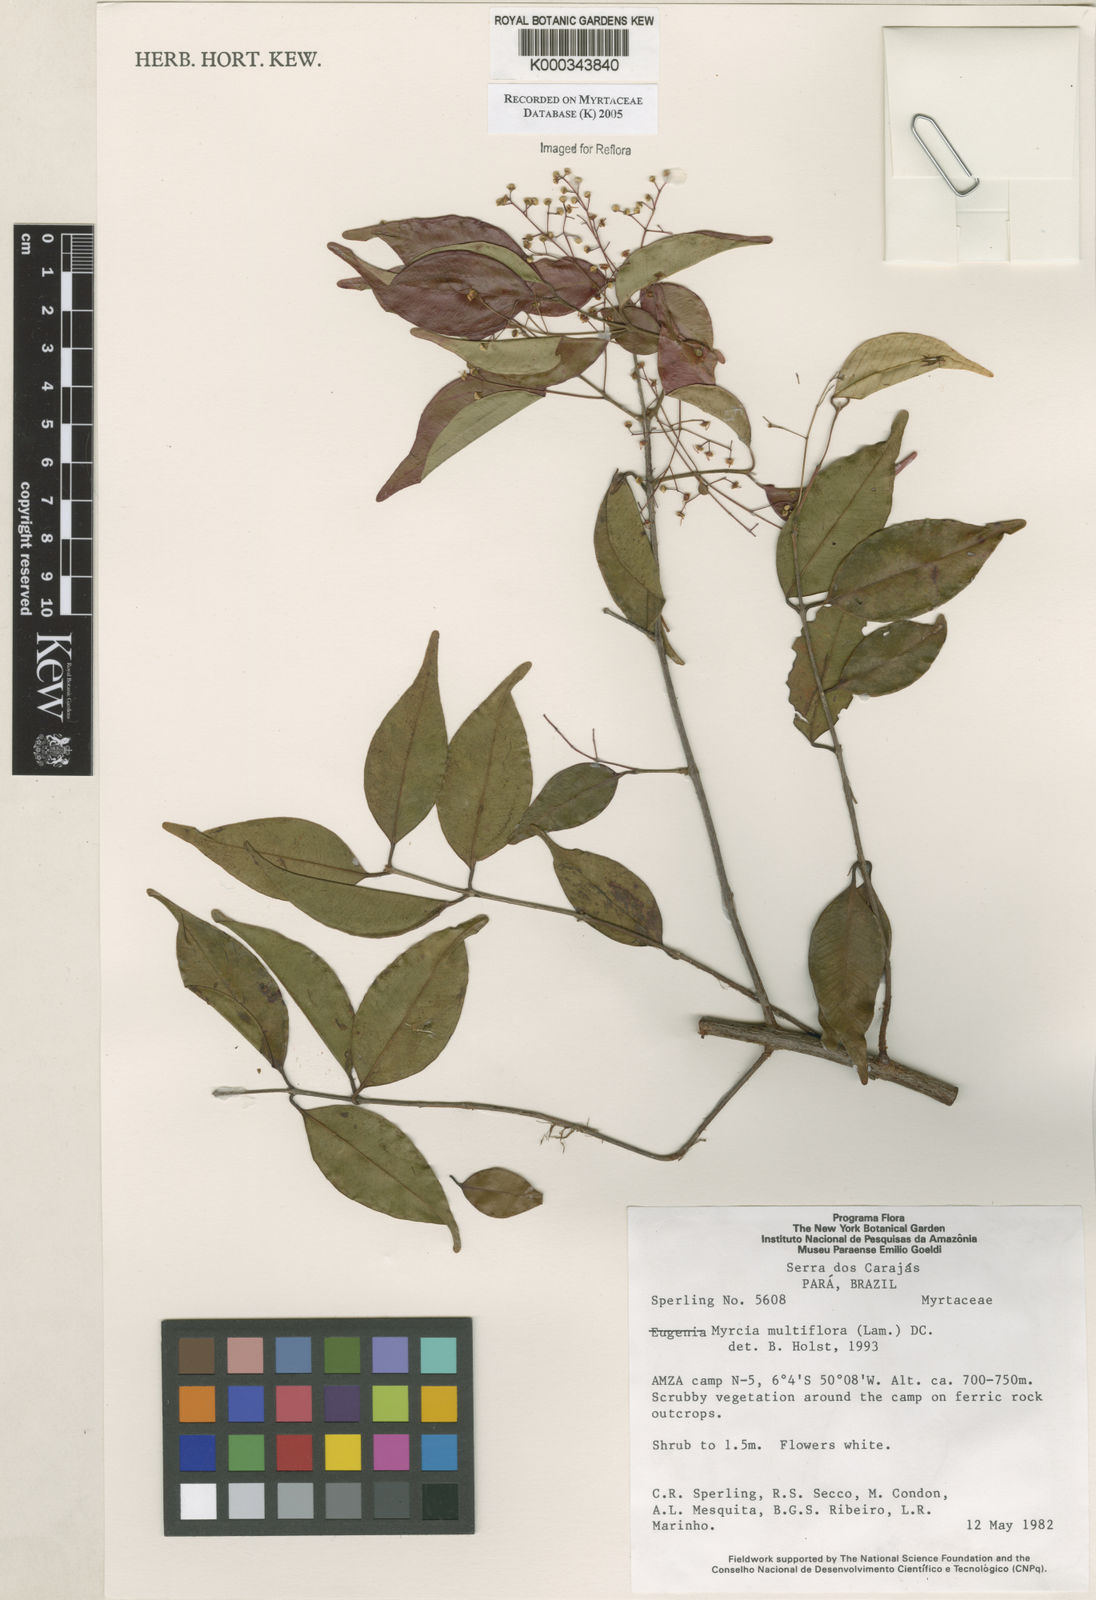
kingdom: Plantae
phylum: Tracheophyta
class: Magnoliopsida
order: Myrtales
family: Myrtaceae
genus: Myrcia
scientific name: Myrcia laruotteana
